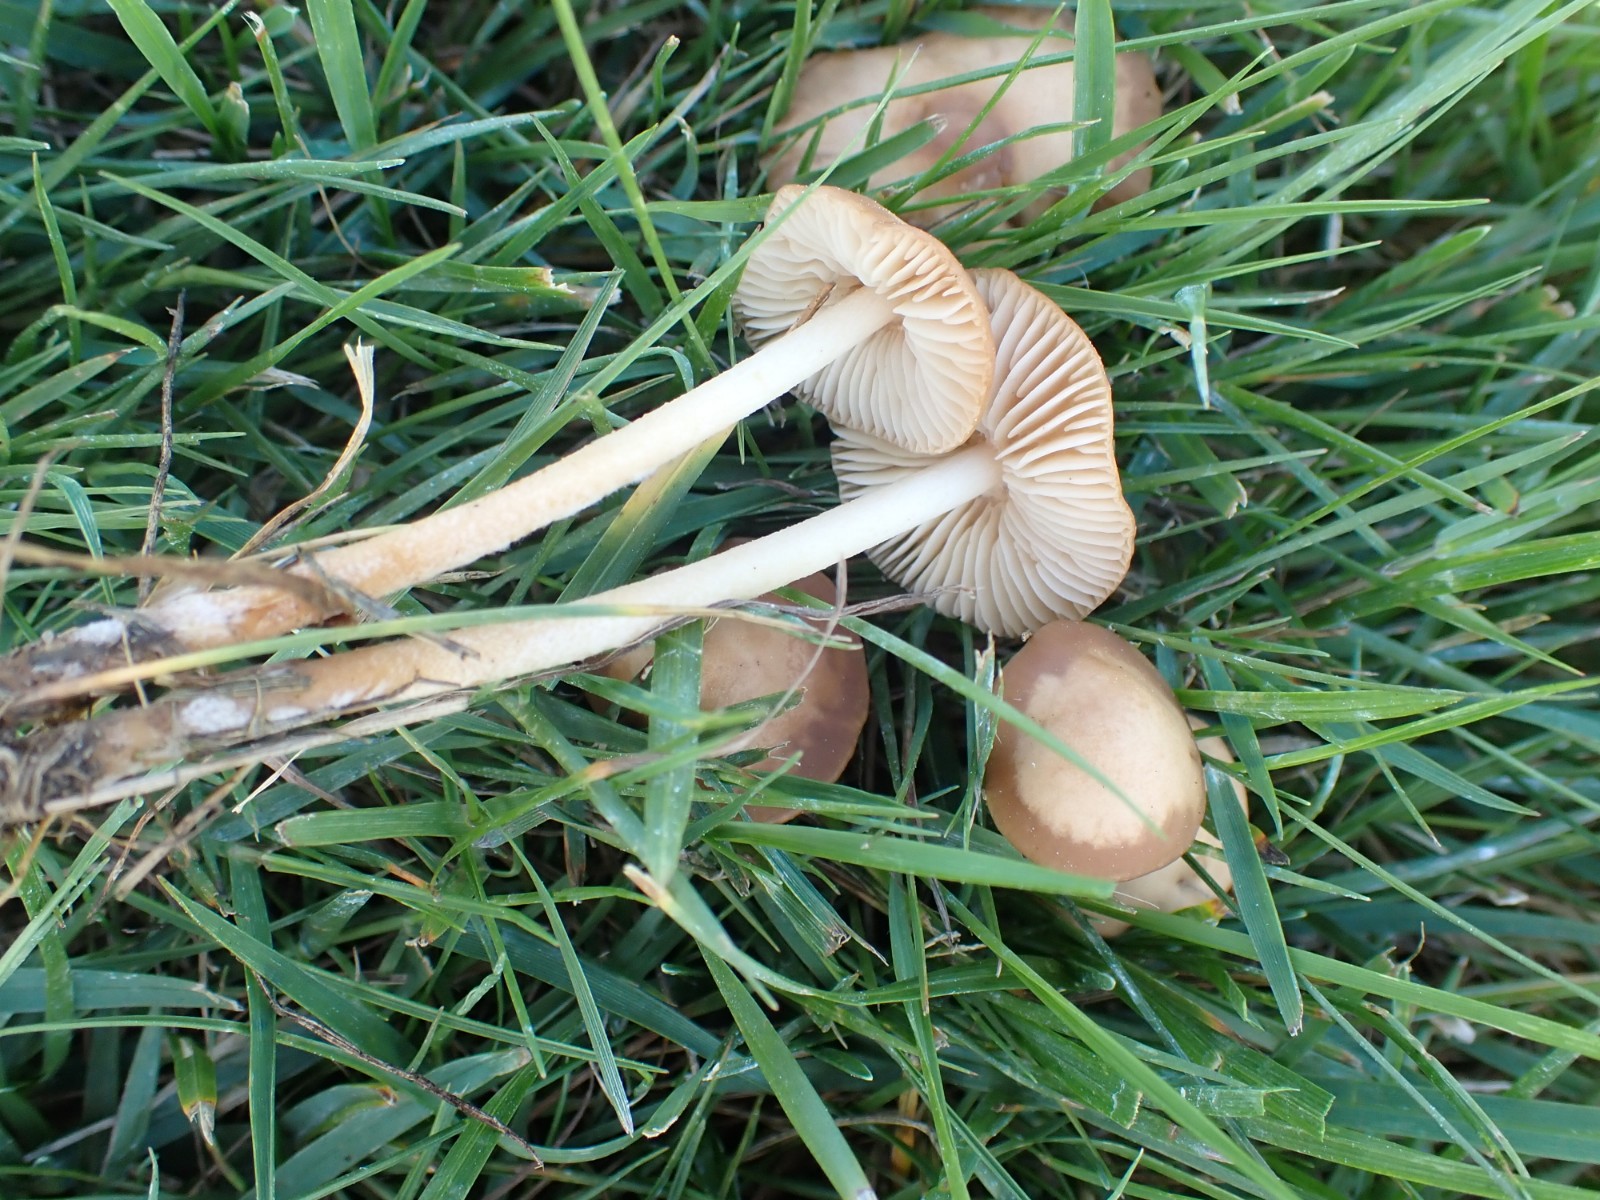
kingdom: Fungi
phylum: Basidiomycota
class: Agaricomycetes
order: Agaricales
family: Marasmiaceae
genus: Marasmius
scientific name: Marasmius oreades
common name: elledans-bruskhat
